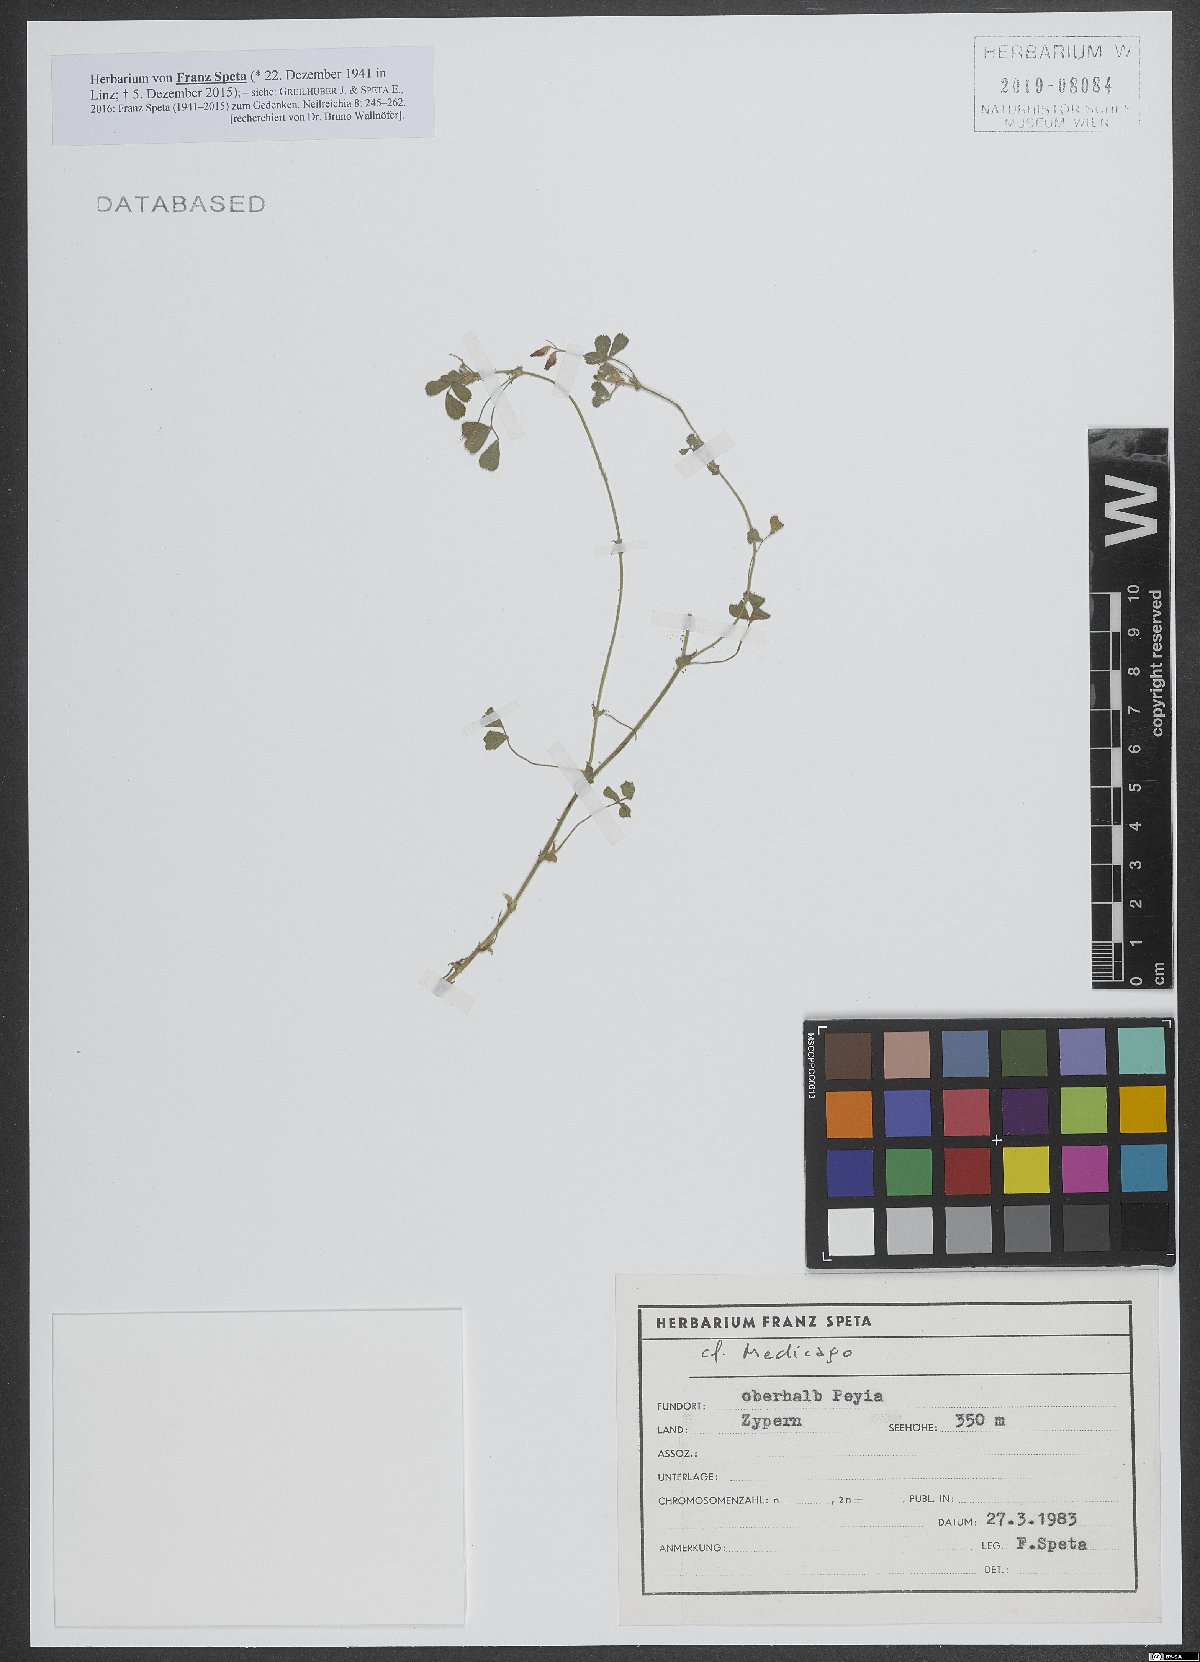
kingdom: Plantae
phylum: Tracheophyta
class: Magnoliopsida
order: Fabales
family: Fabaceae
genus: Medicago
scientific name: Medicago
